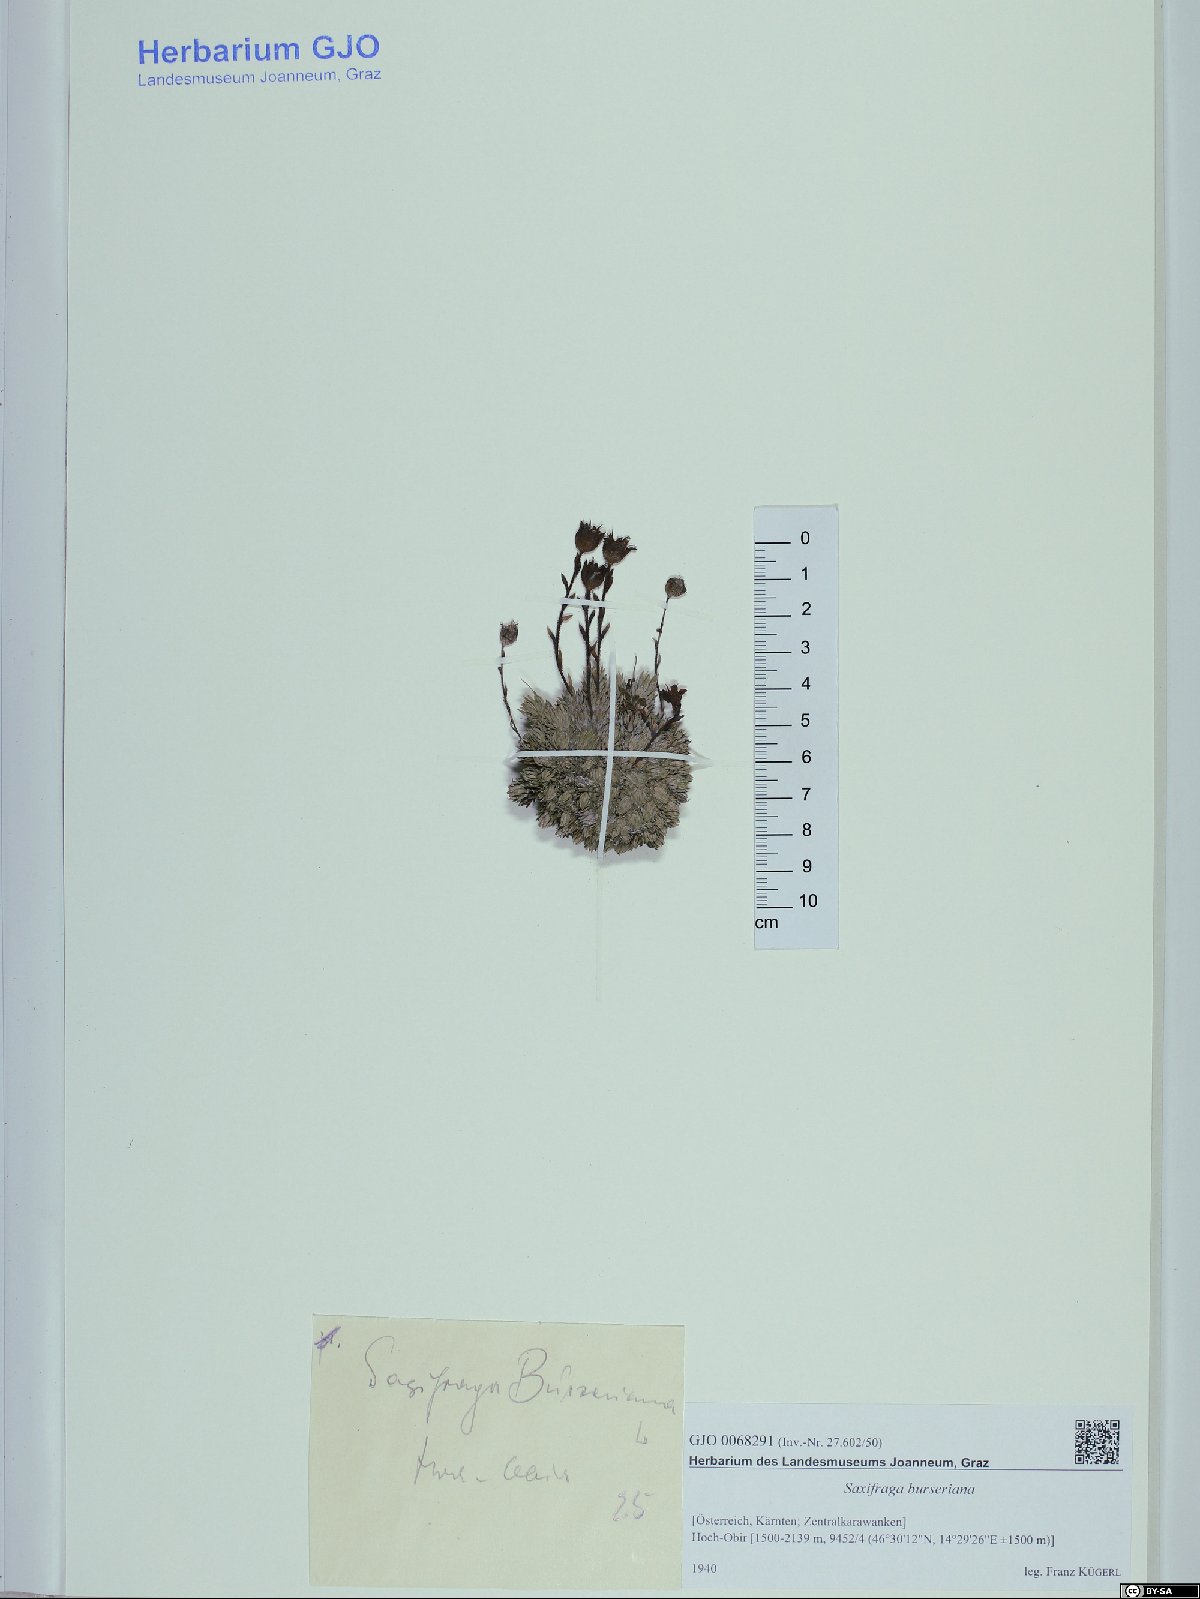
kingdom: Plantae
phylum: Tracheophyta
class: Magnoliopsida
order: Saxifragales
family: Saxifragaceae
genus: Saxifraga
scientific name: Saxifraga burseriana
